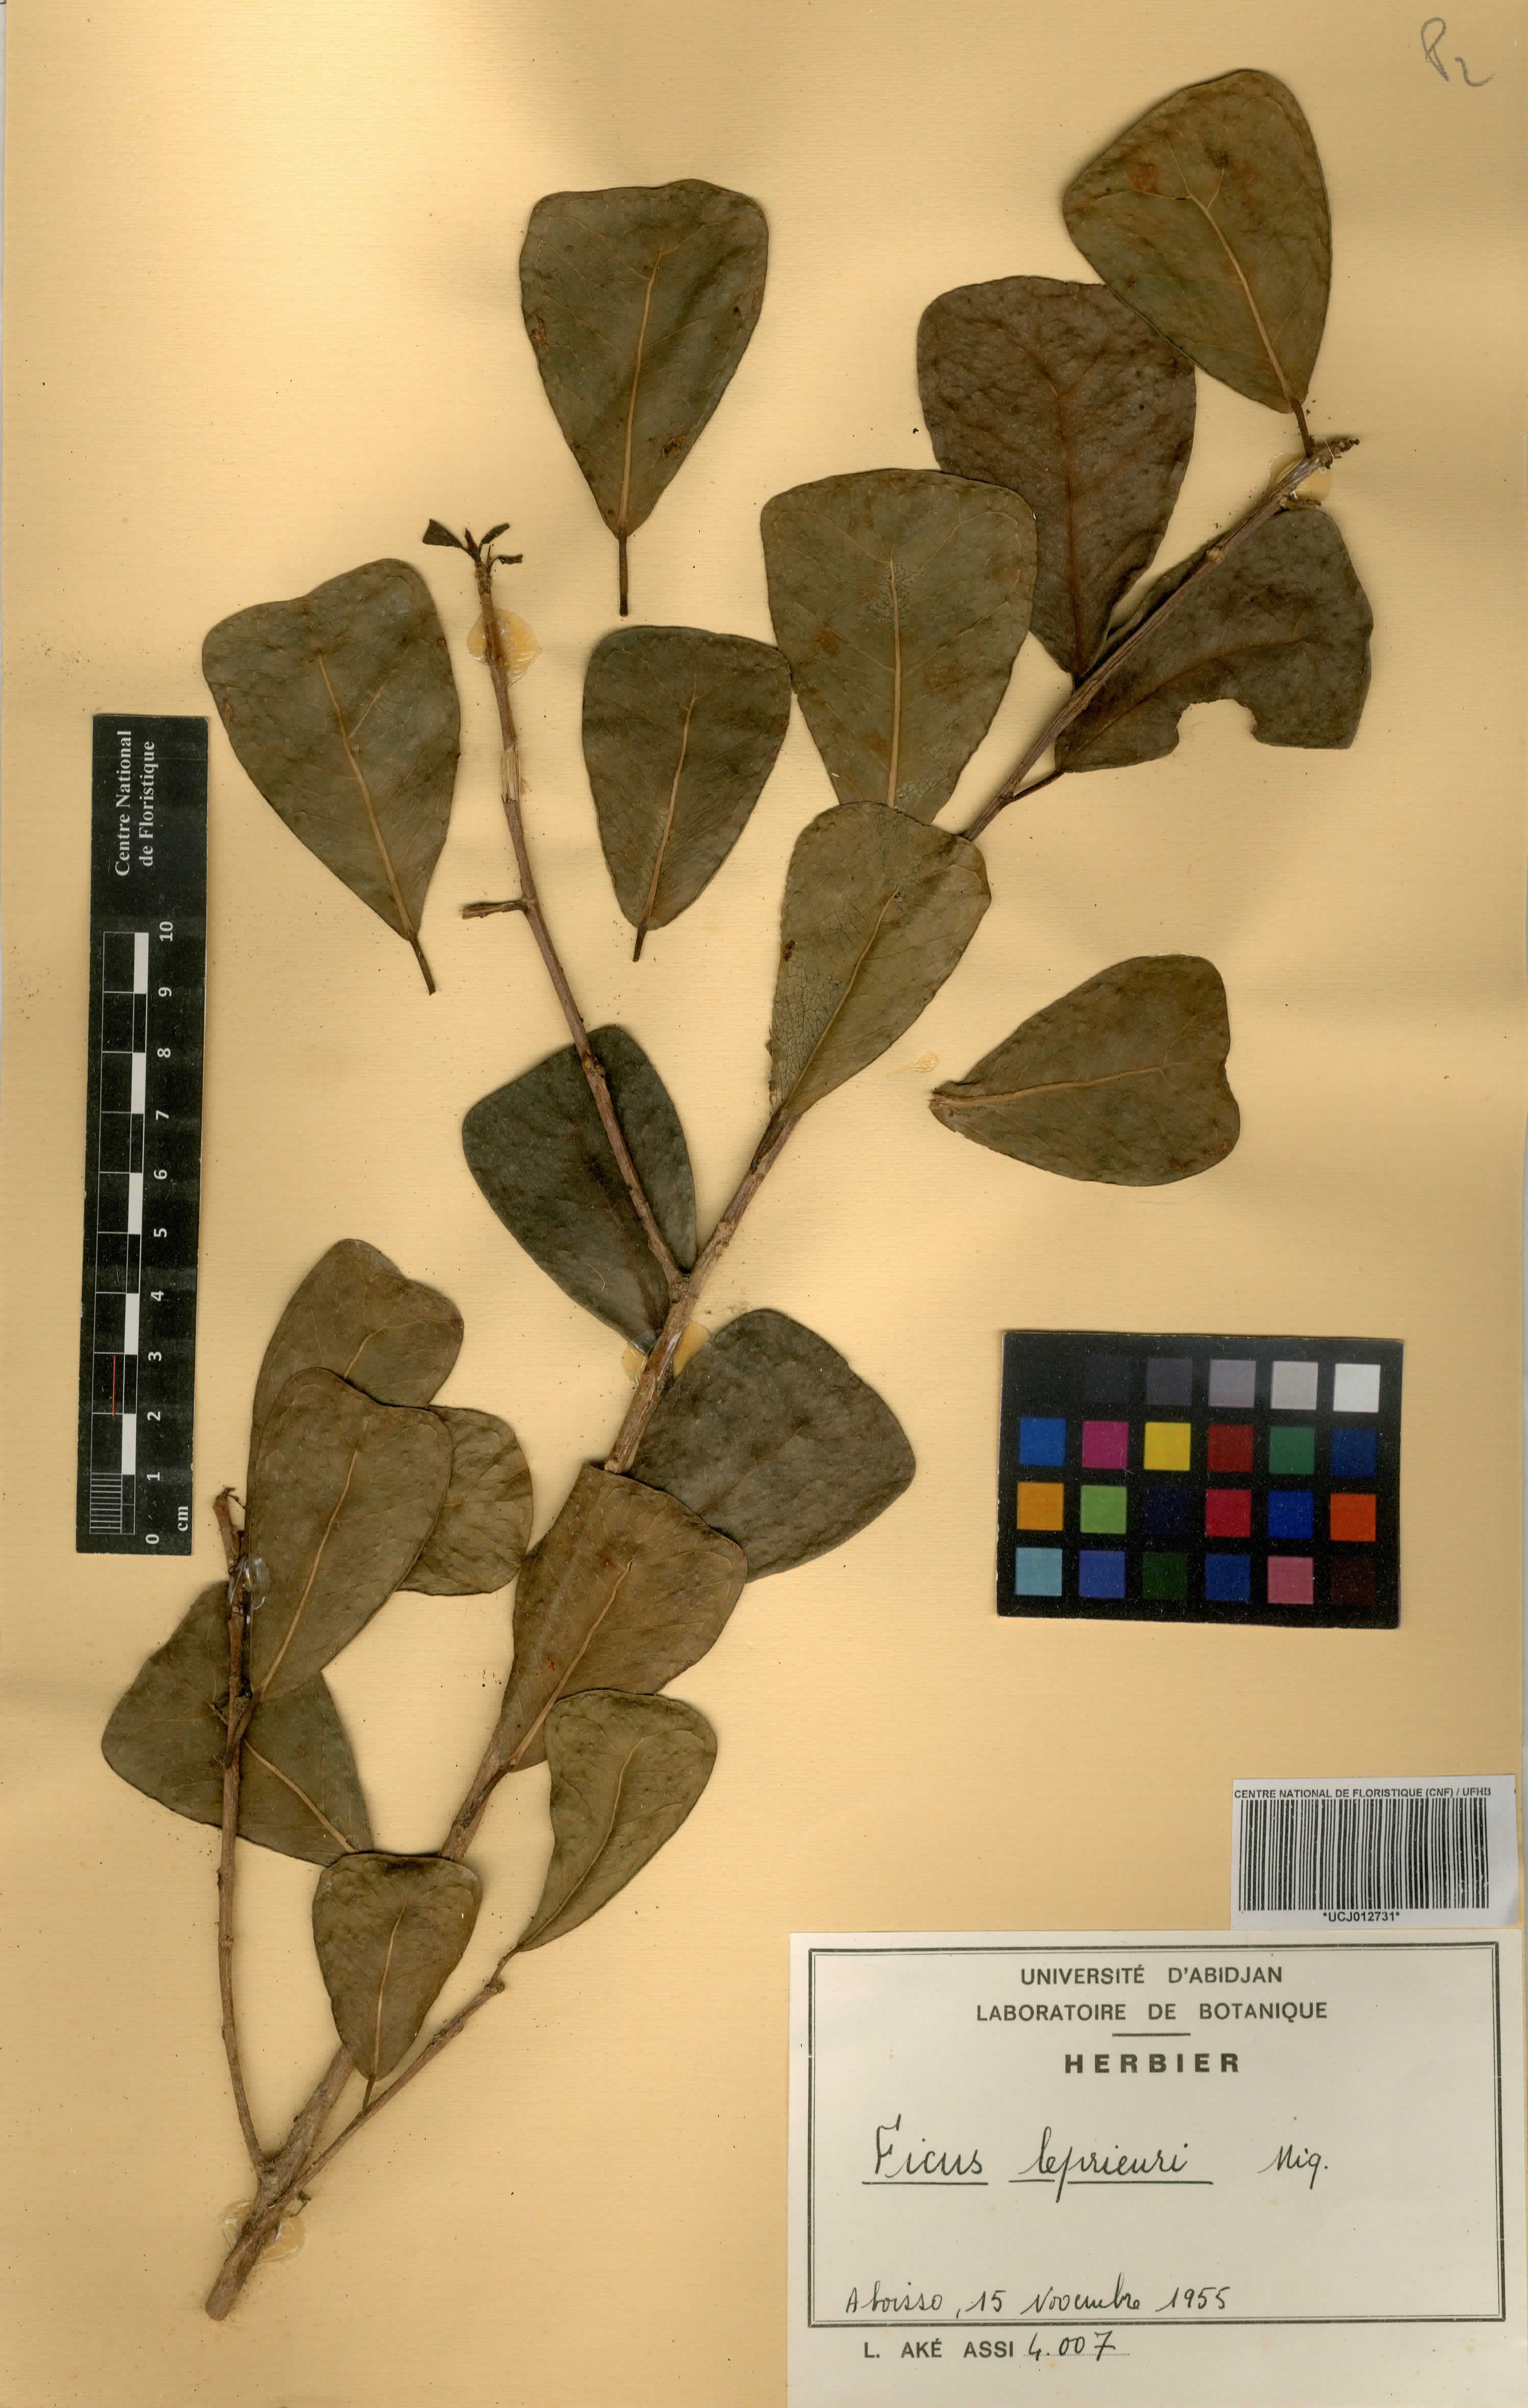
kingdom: Plantae
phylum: Tracheophyta
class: Magnoliopsida
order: Rosales
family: Moraceae
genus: Ficus
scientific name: Ficus natalensis
